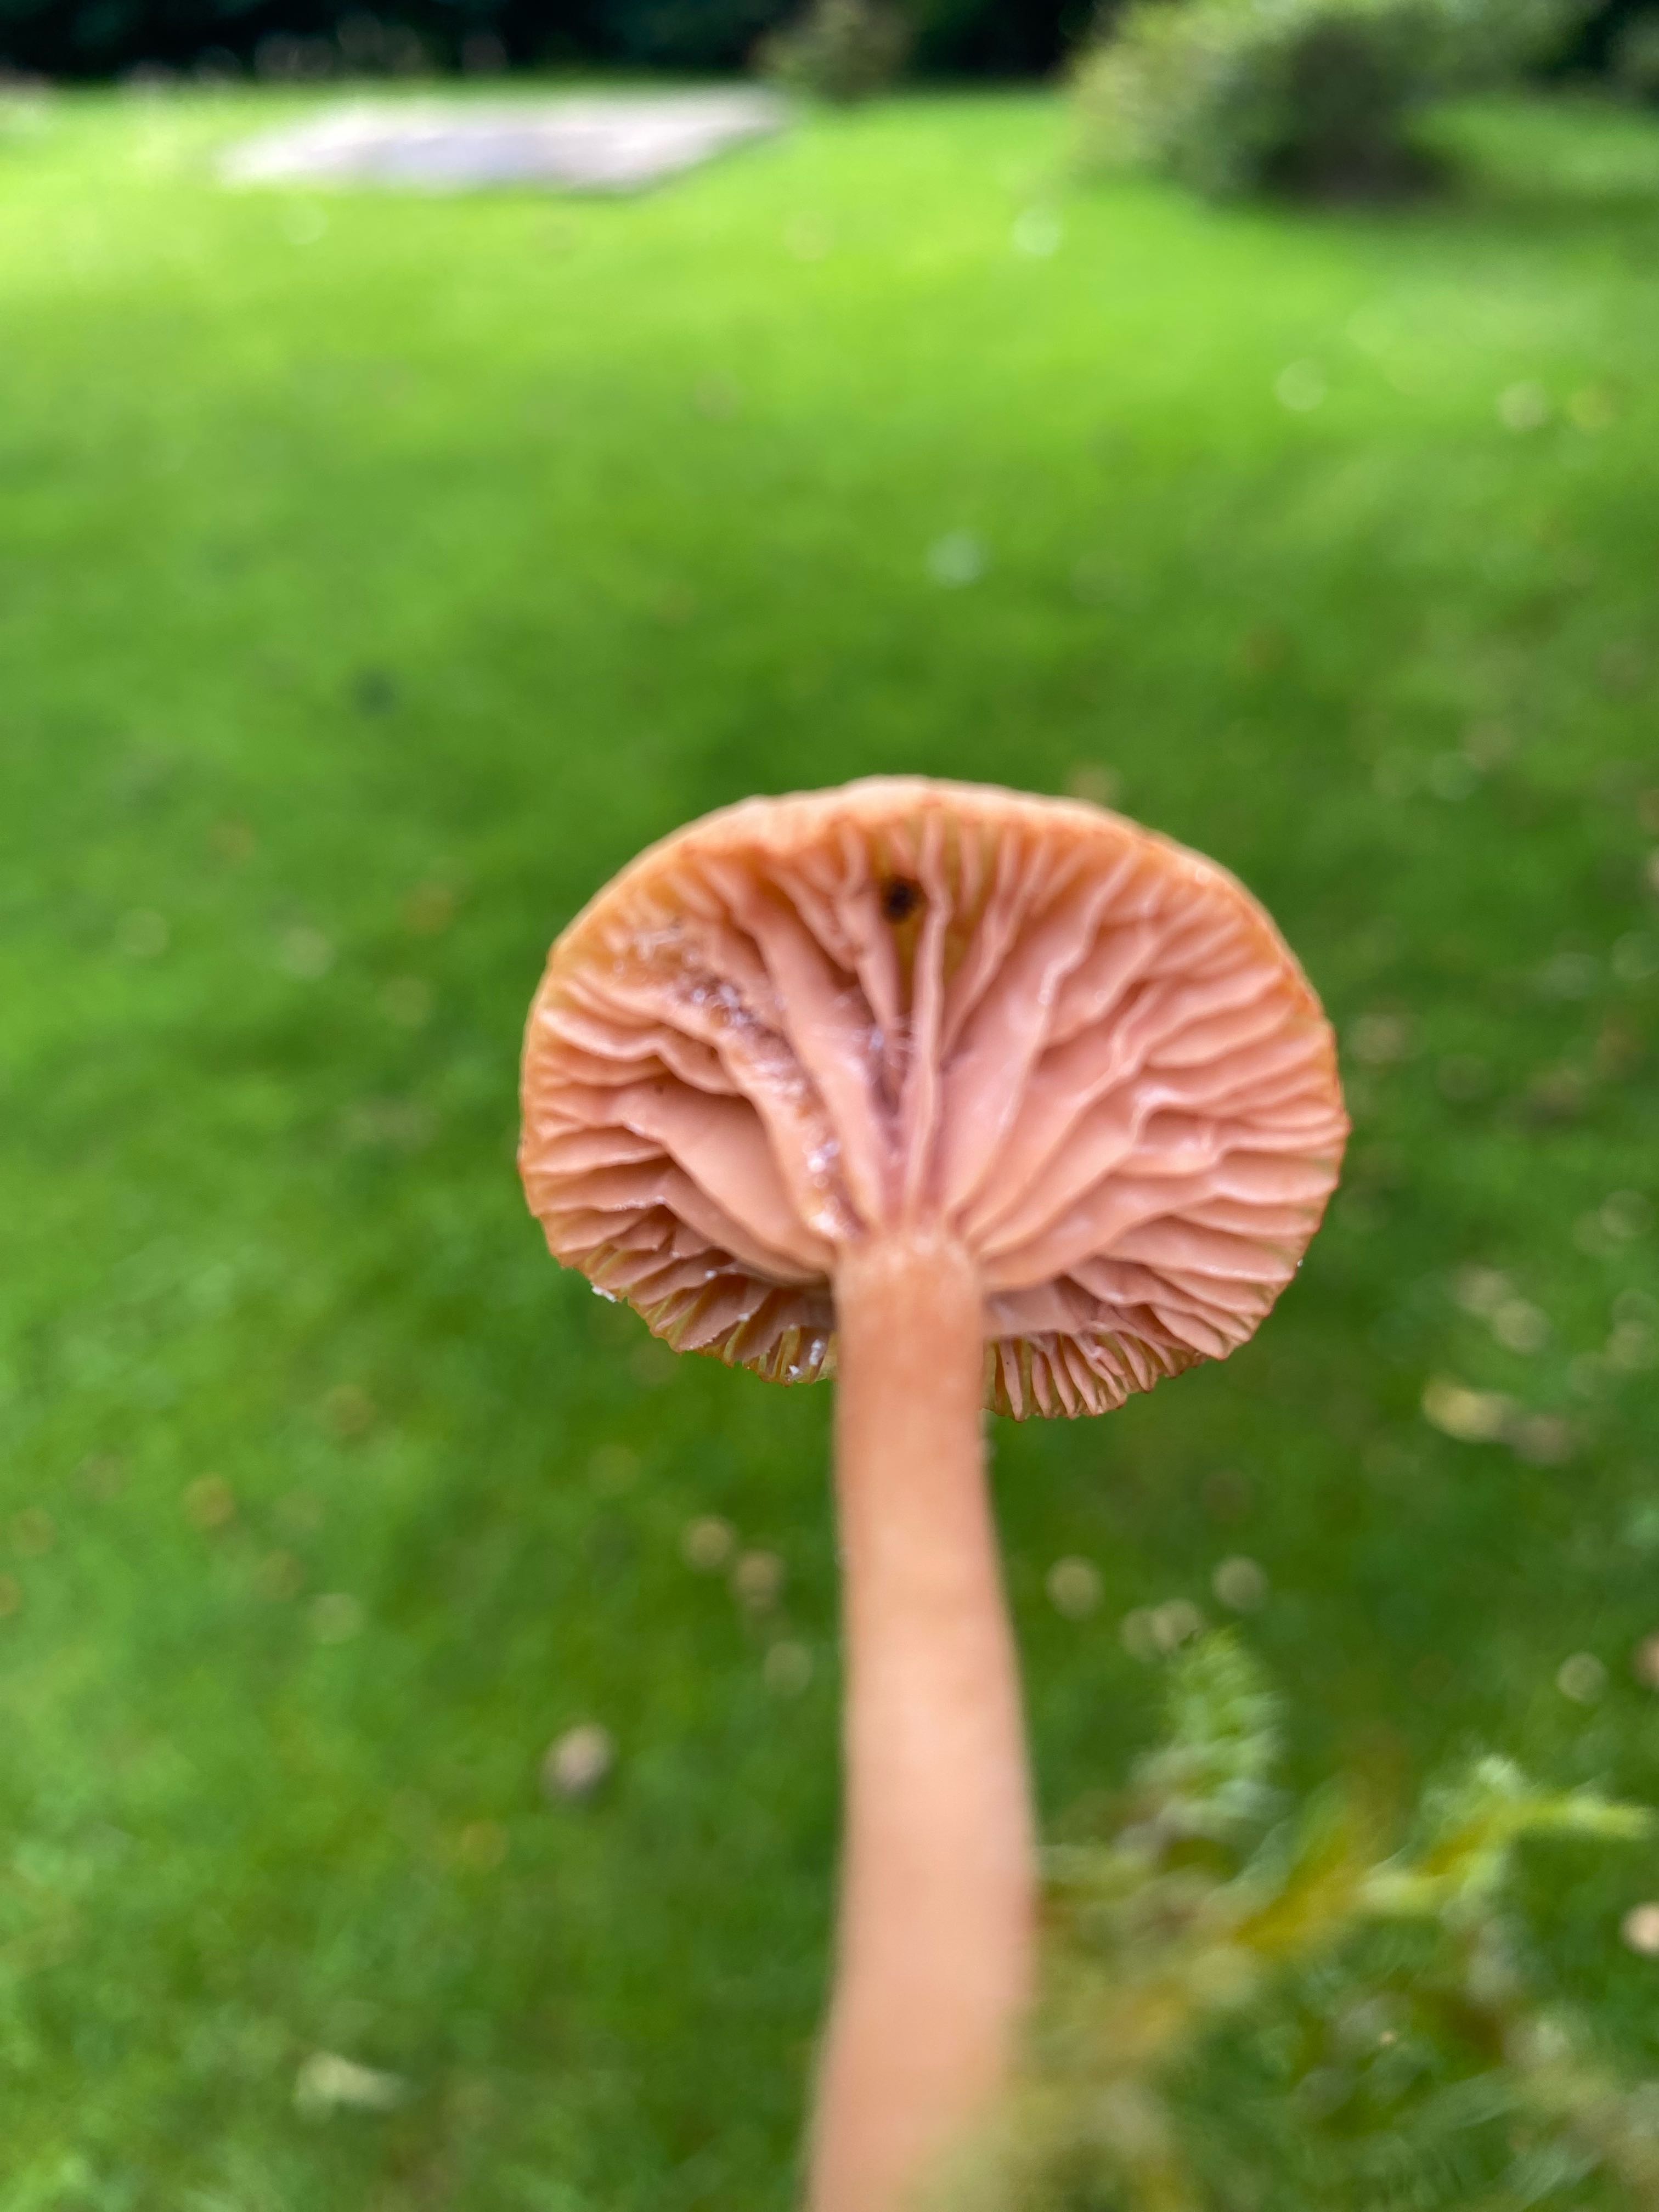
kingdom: Fungi
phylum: Basidiomycota
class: Agaricomycetes
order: Agaricales
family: Hydnangiaceae
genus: Laccaria
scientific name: Laccaria laccata
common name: rød ametysthat
